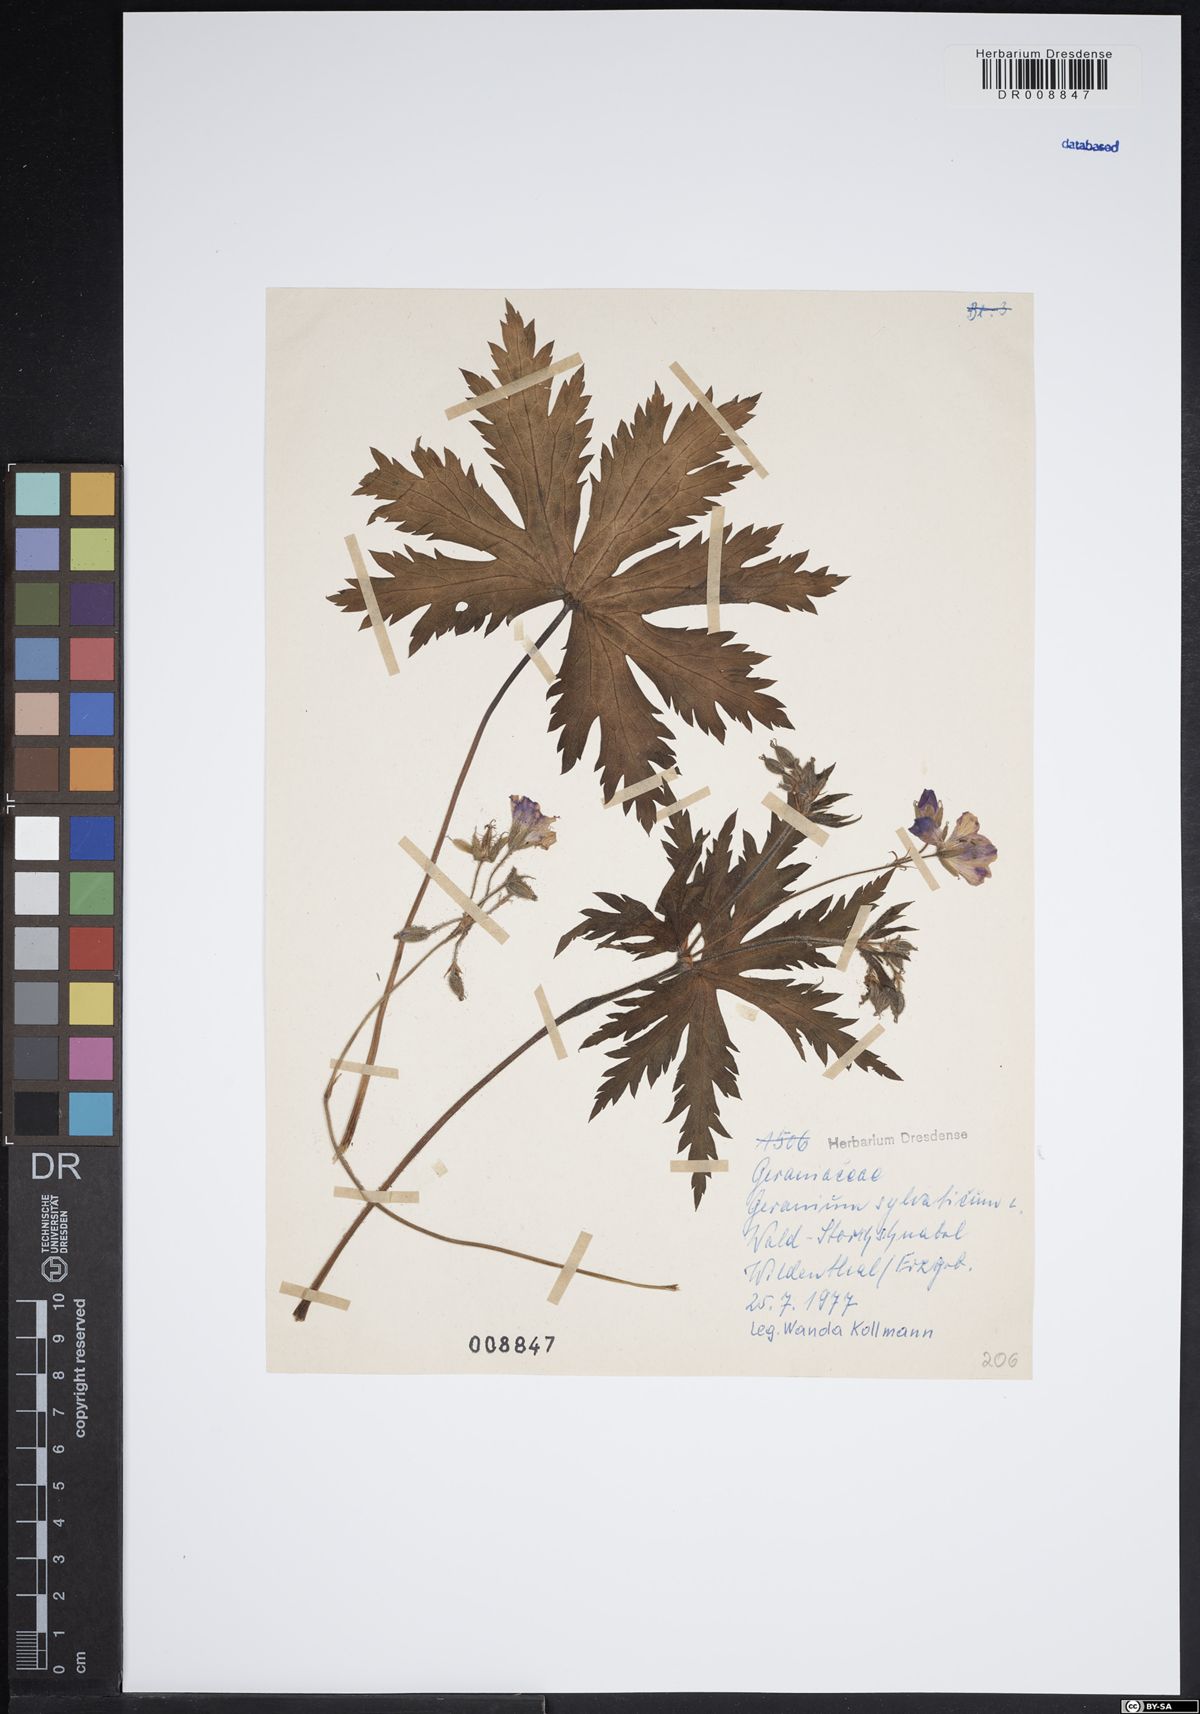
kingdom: Plantae
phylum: Tracheophyta
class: Magnoliopsida
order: Geraniales
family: Geraniaceae
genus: Geranium
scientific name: Geranium sylvaticum
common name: Wood crane's-bill
